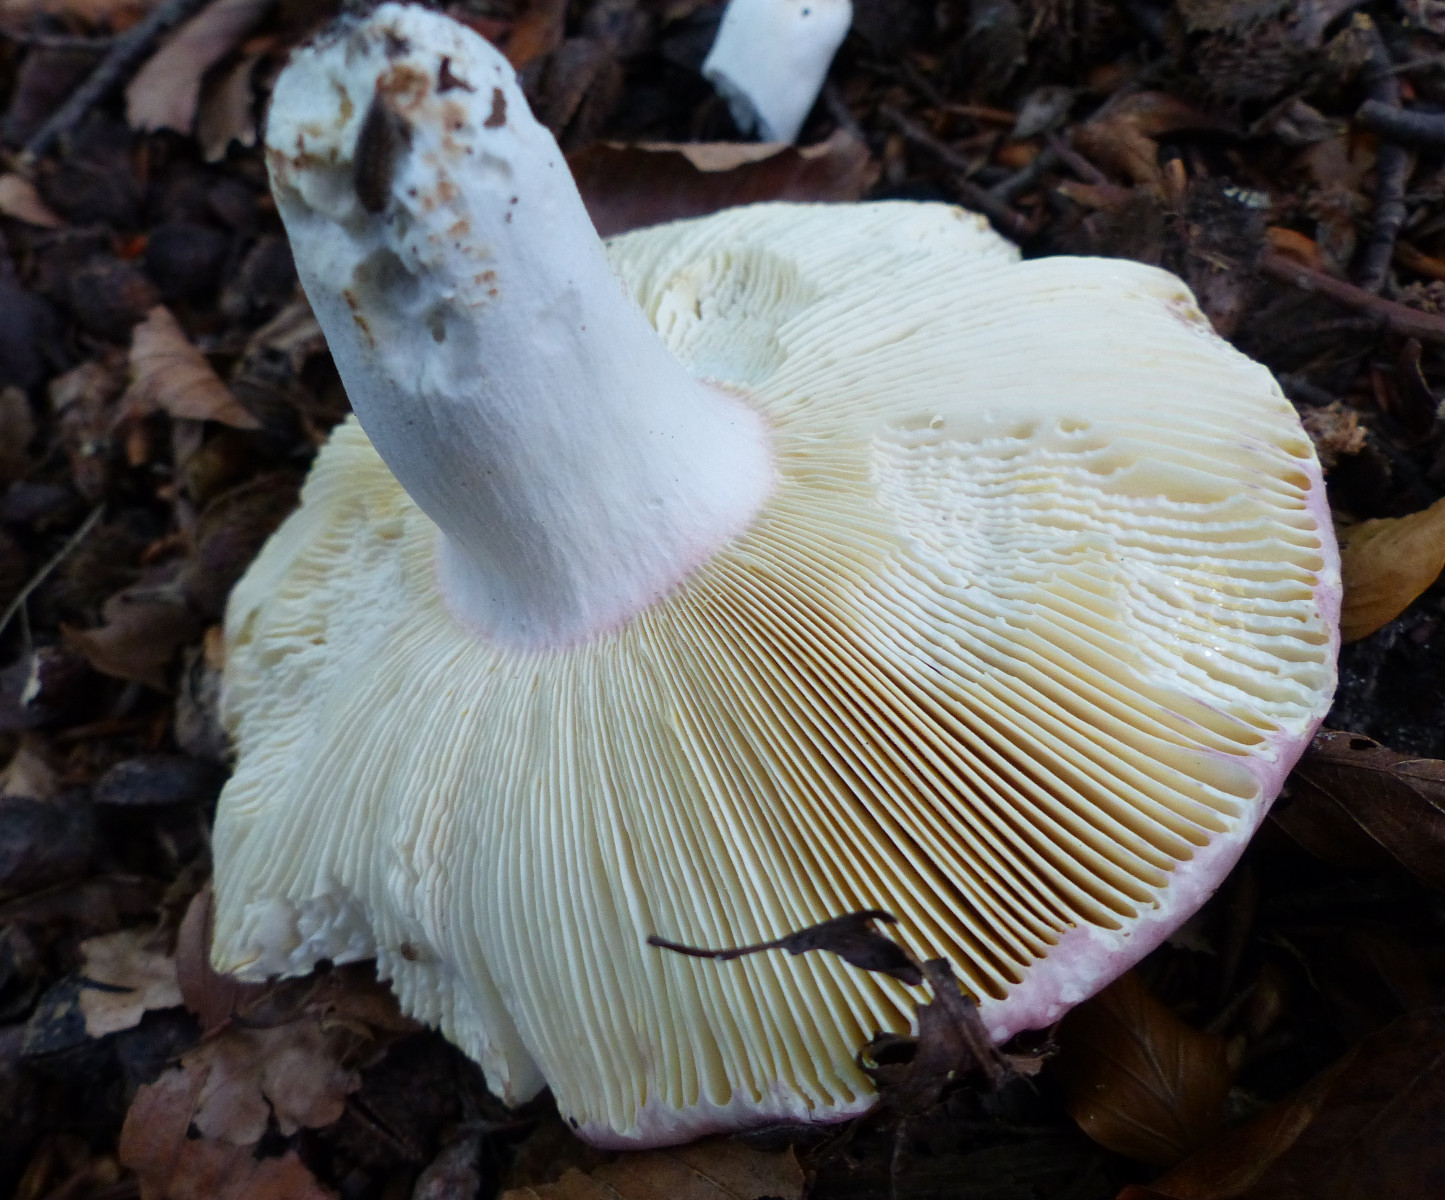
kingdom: Fungi
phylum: Basidiomycota
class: Agaricomycetes
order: Russulales
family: Russulaceae
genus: Russula
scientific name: Russula
